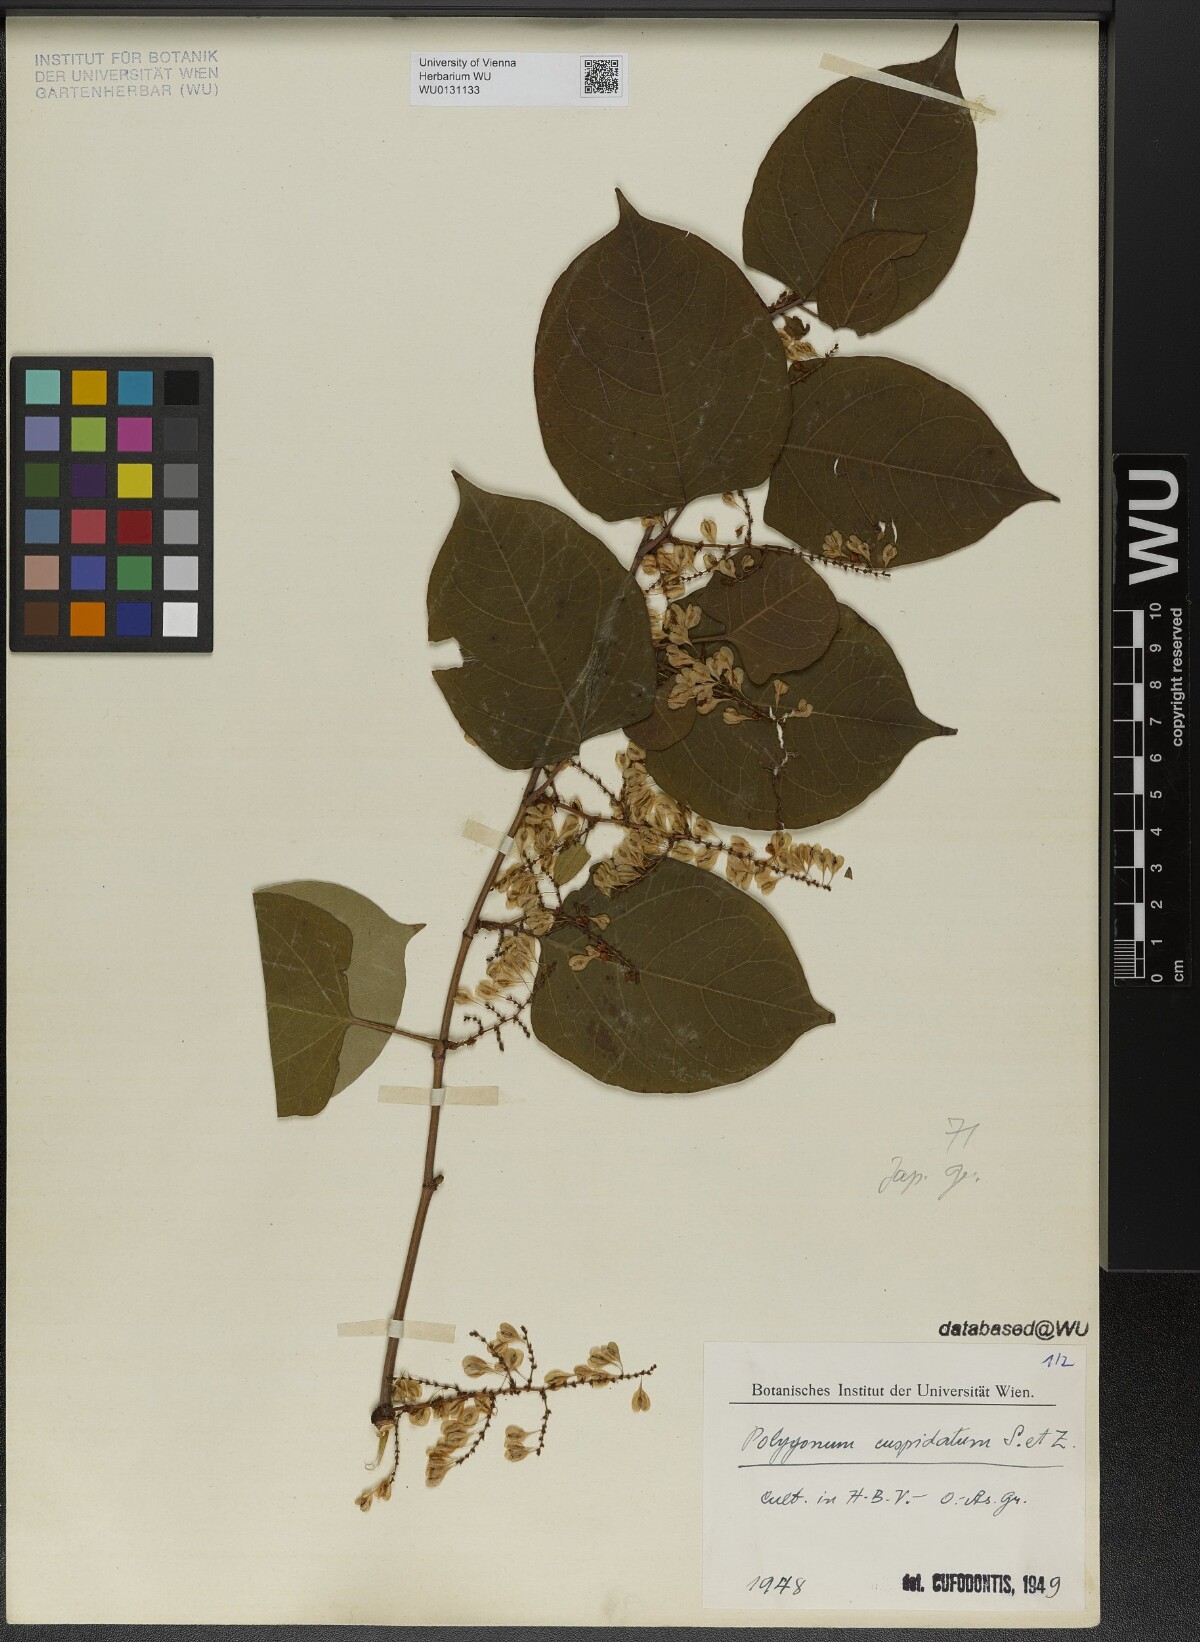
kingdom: Plantae
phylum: Tracheophyta
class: Magnoliopsida
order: Caryophyllales
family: Polygonaceae
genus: Reynoutria
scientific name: Reynoutria japonica
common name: Japanese knotweed
